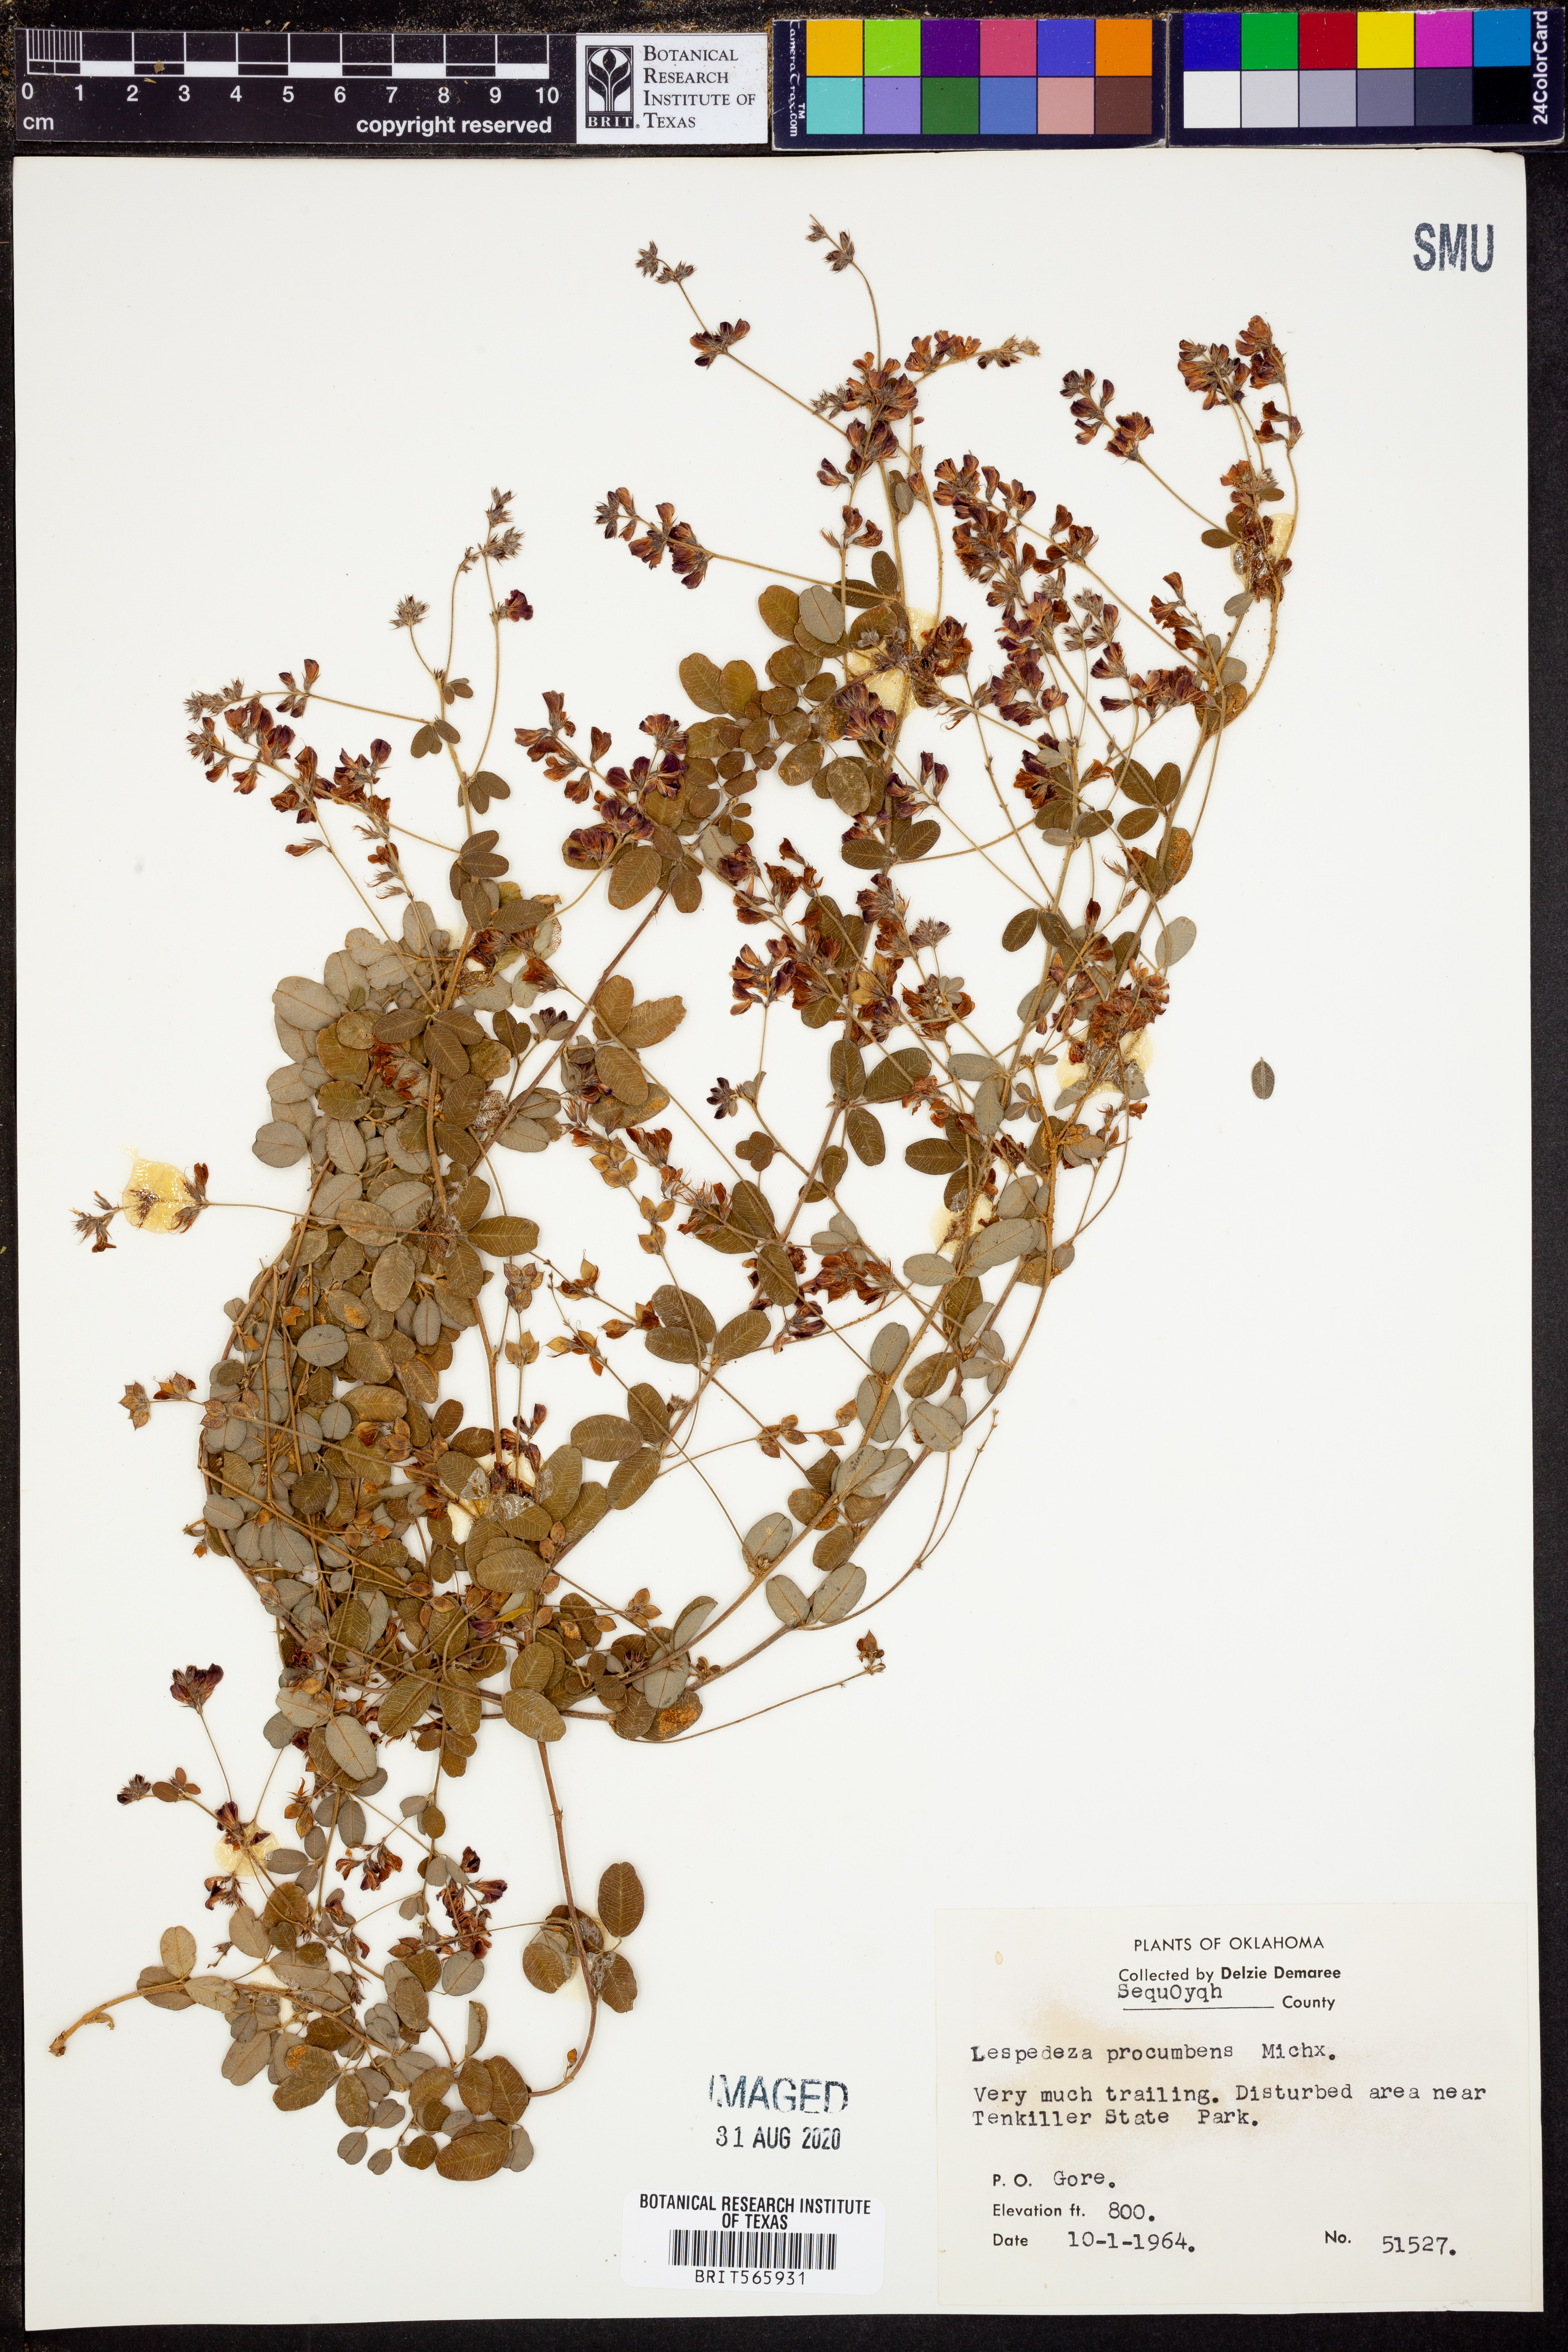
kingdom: Plantae
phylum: Tracheophyta
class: Magnoliopsida
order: Fabales
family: Fabaceae
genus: Lespedeza
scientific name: Lespedeza procumbens
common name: Downy trailing bush-clover
